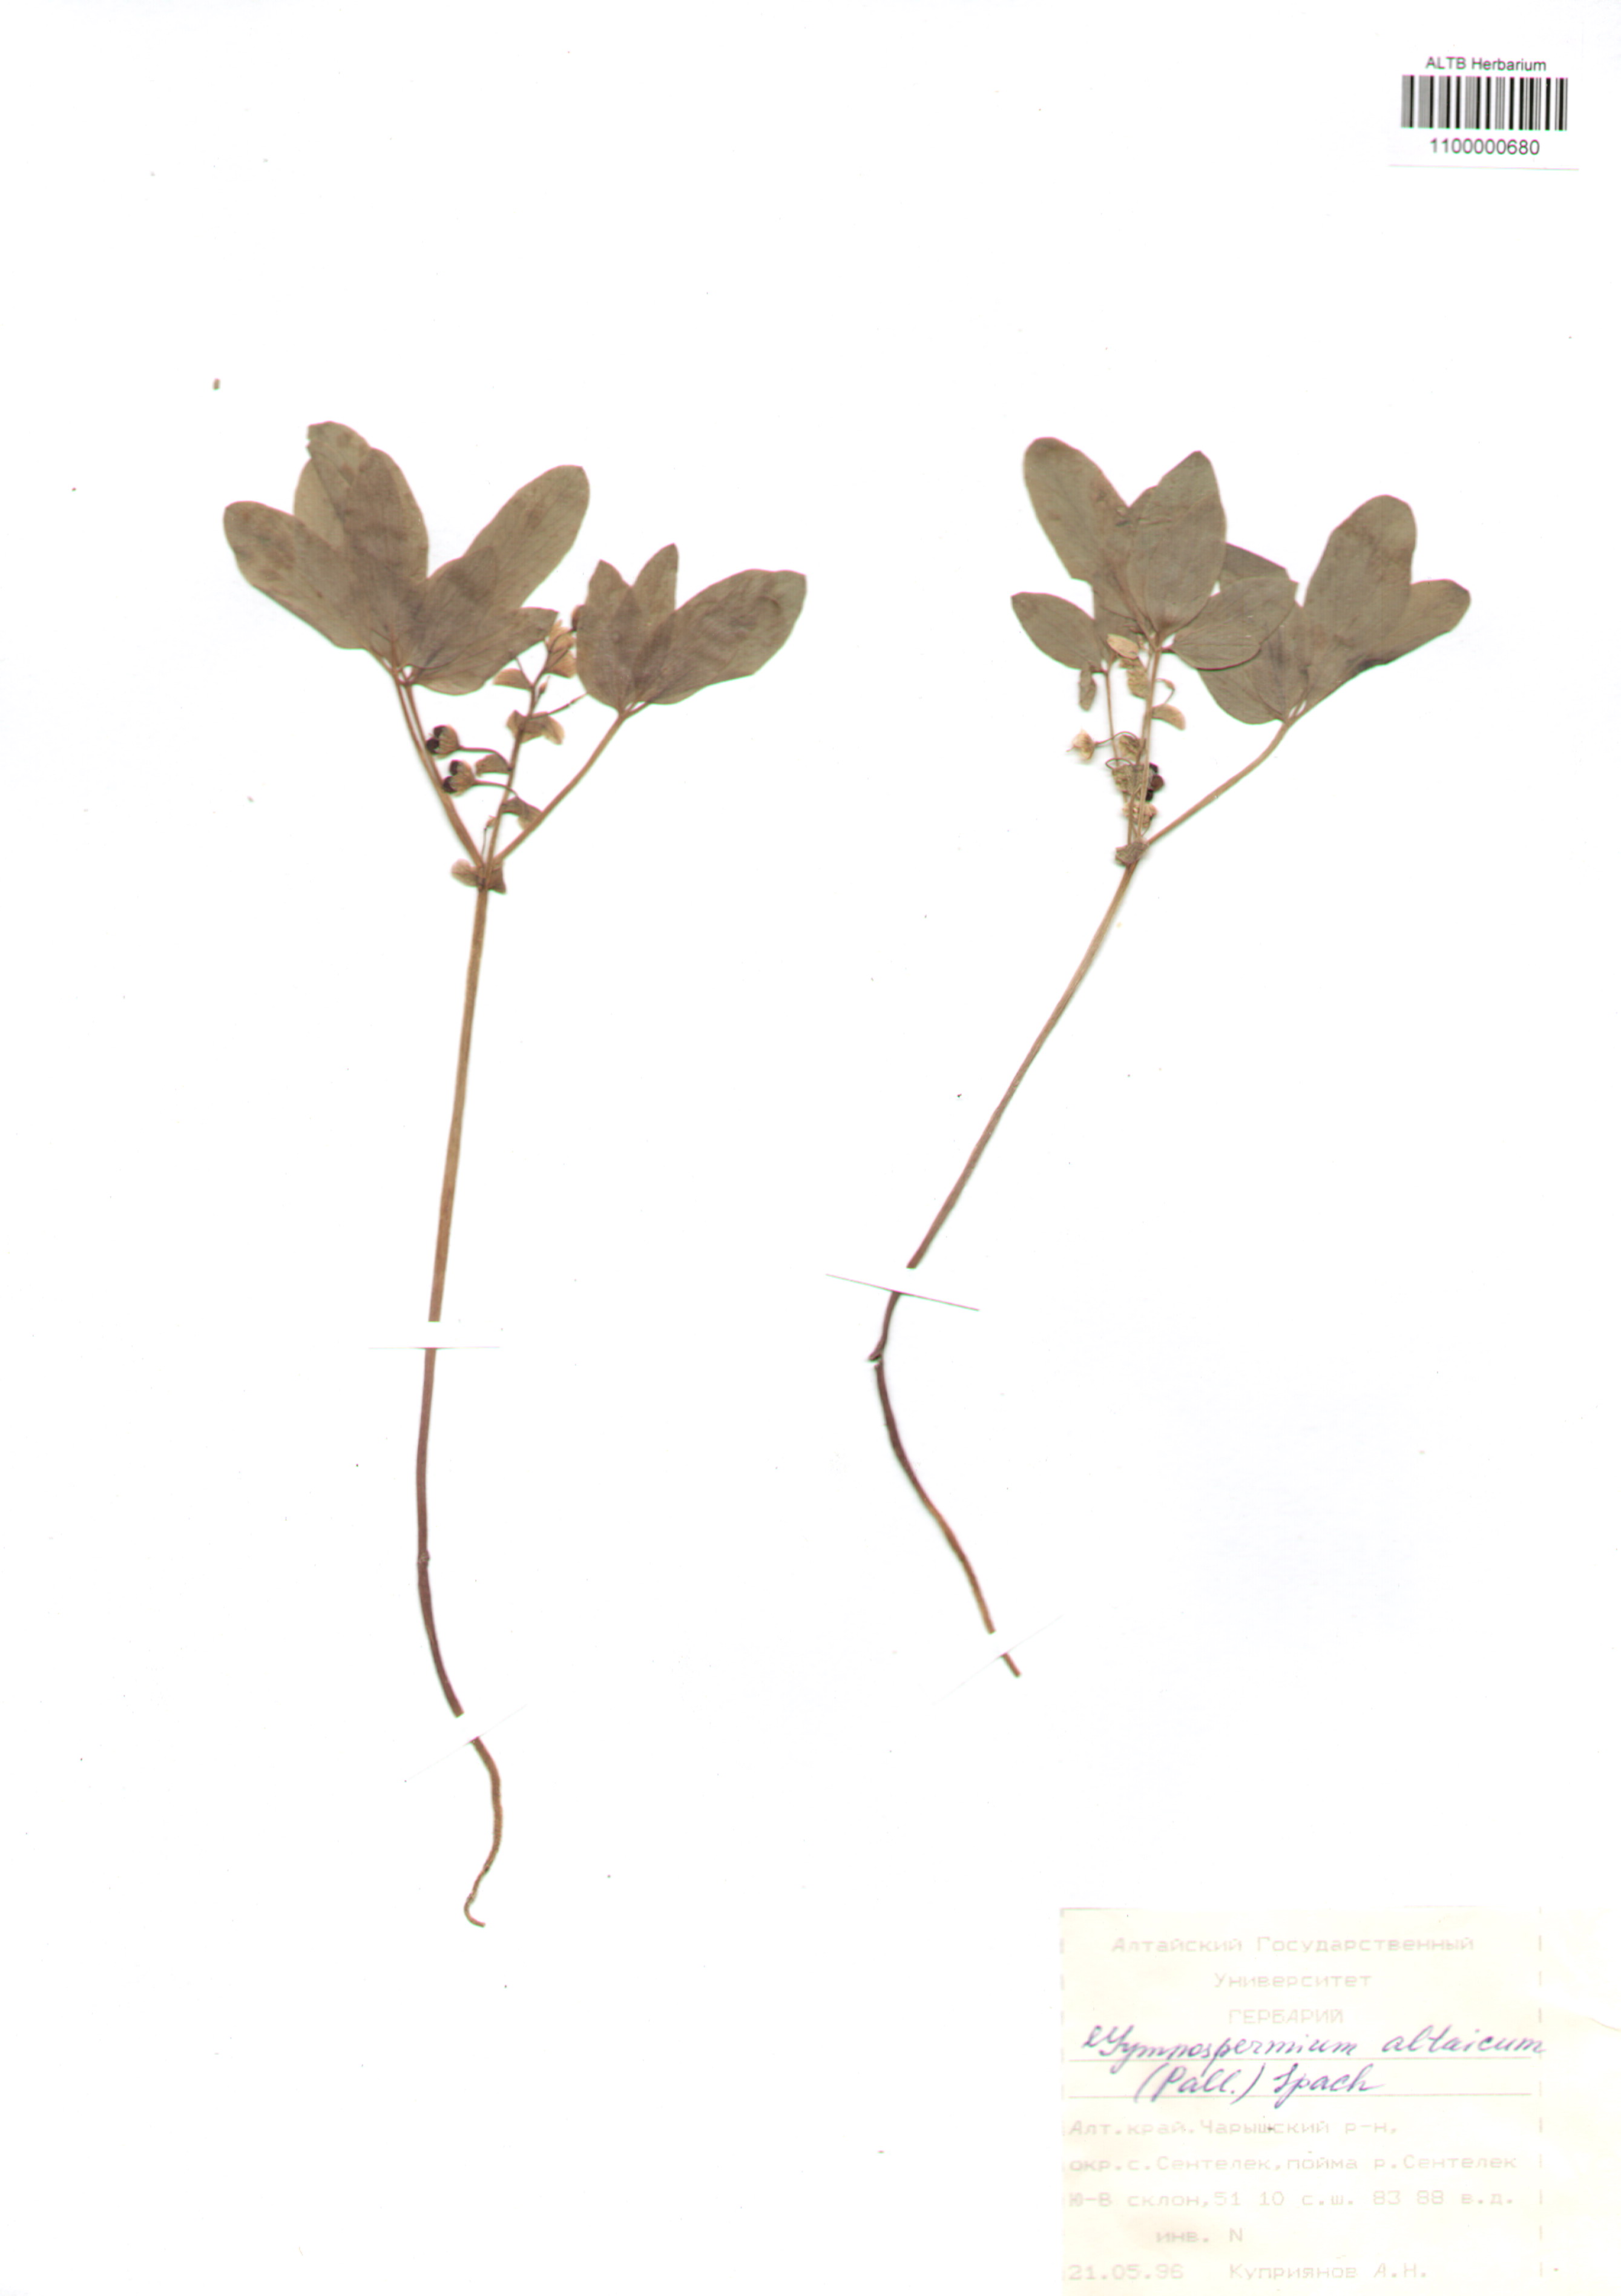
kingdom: Plantae
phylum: Tracheophyta
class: Magnoliopsida
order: Ranunculales
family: Berberidaceae
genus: Gymnospermium
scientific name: Gymnospermium altaicum
